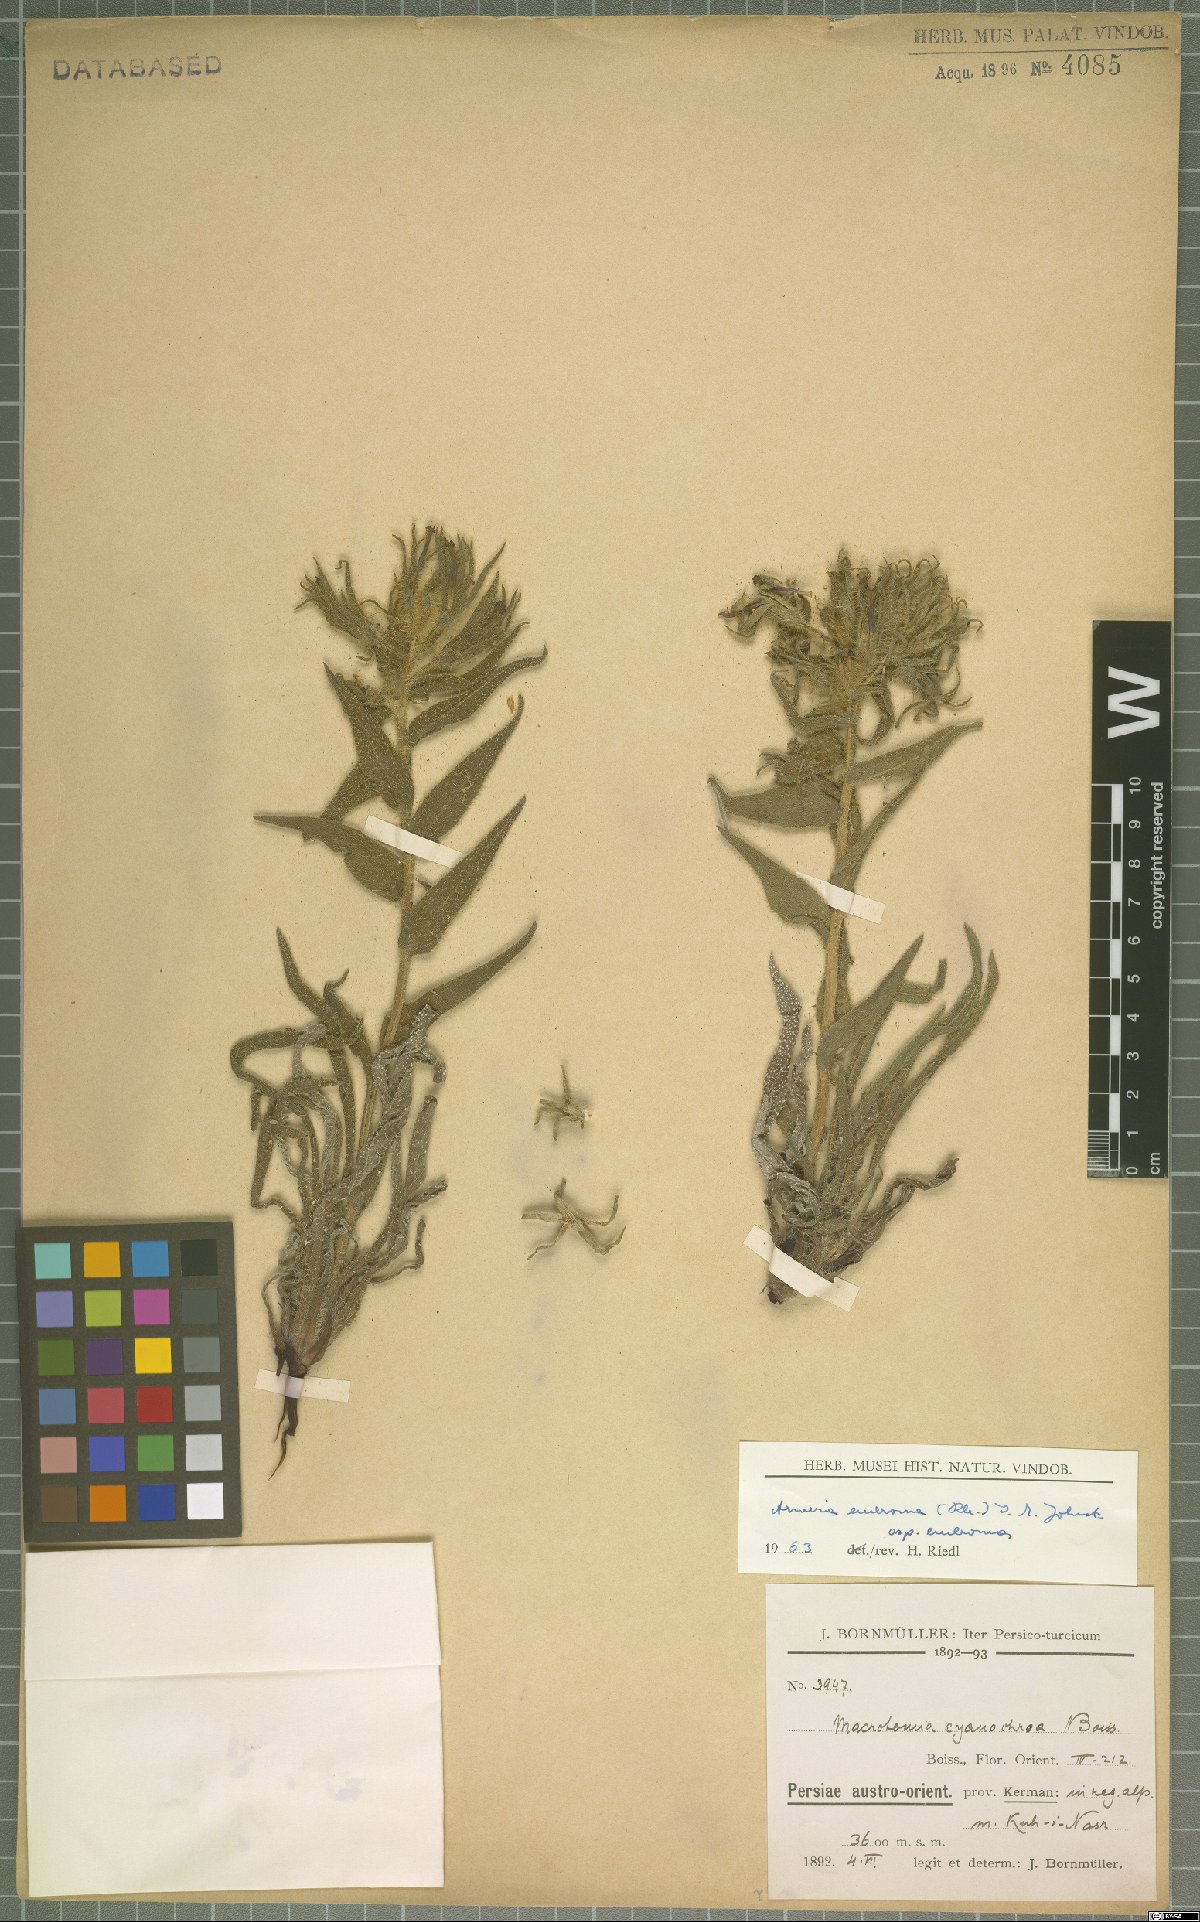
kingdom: Plantae
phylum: Tracheophyta
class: Magnoliopsida
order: Boraginales
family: Boraginaceae
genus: Arnebia
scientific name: Arnebia euchroma
